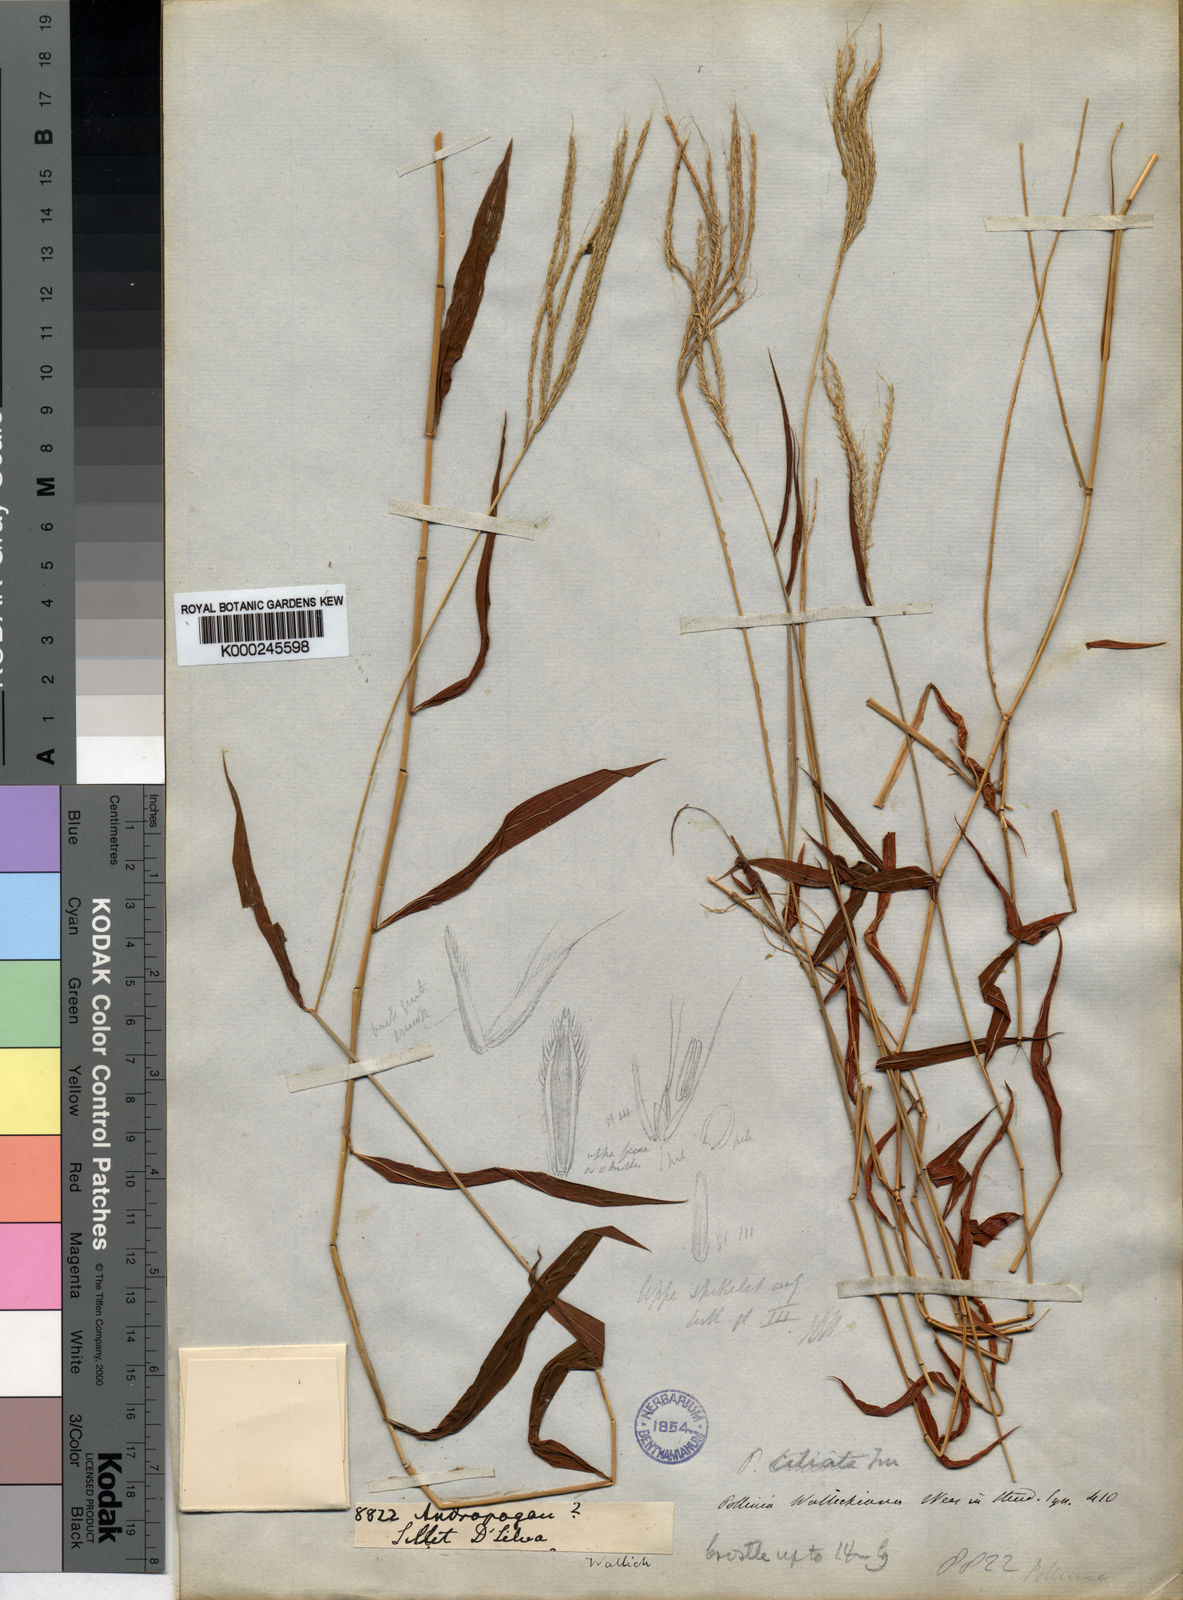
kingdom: Plantae
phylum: Tracheophyta
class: Liliopsida
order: Poales
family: Poaceae
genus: Microstegium
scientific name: Microstegium fasciculatum
